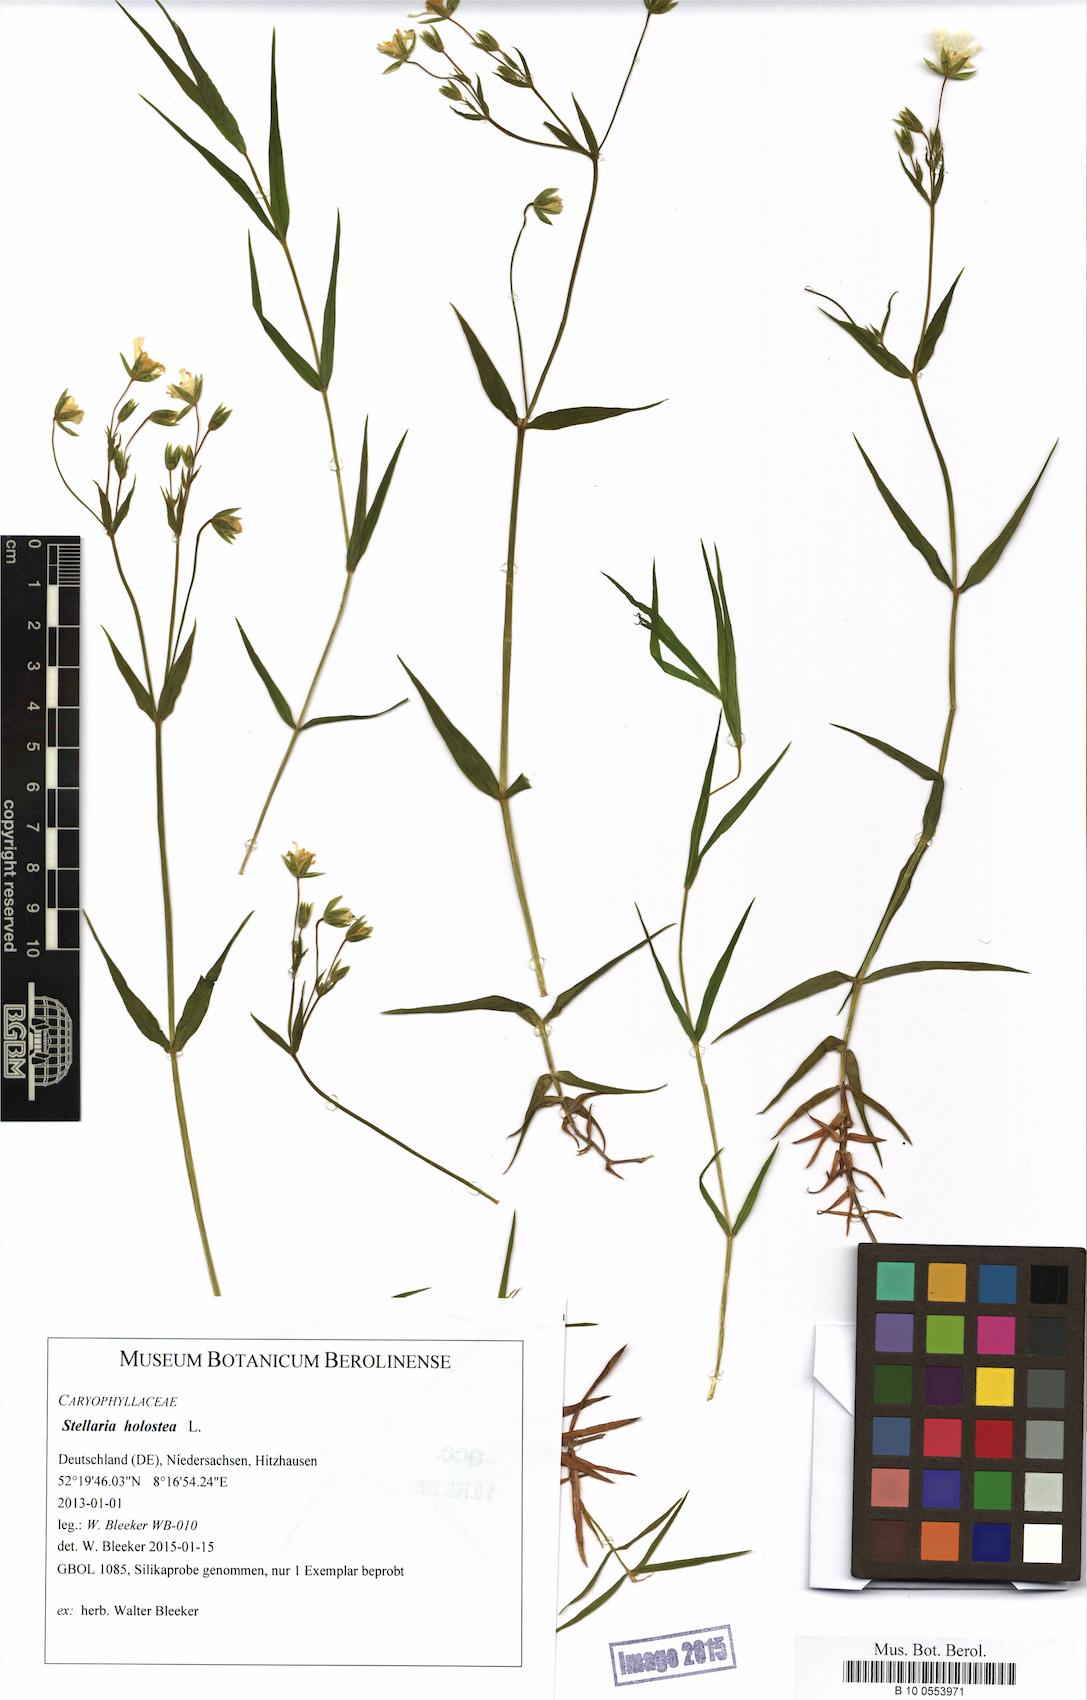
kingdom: Plantae
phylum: Tracheophyta
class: Magnoliopsida
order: Caryophyllales
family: Caryophyllaceae
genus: Rabelera
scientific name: Rabelera holostea
